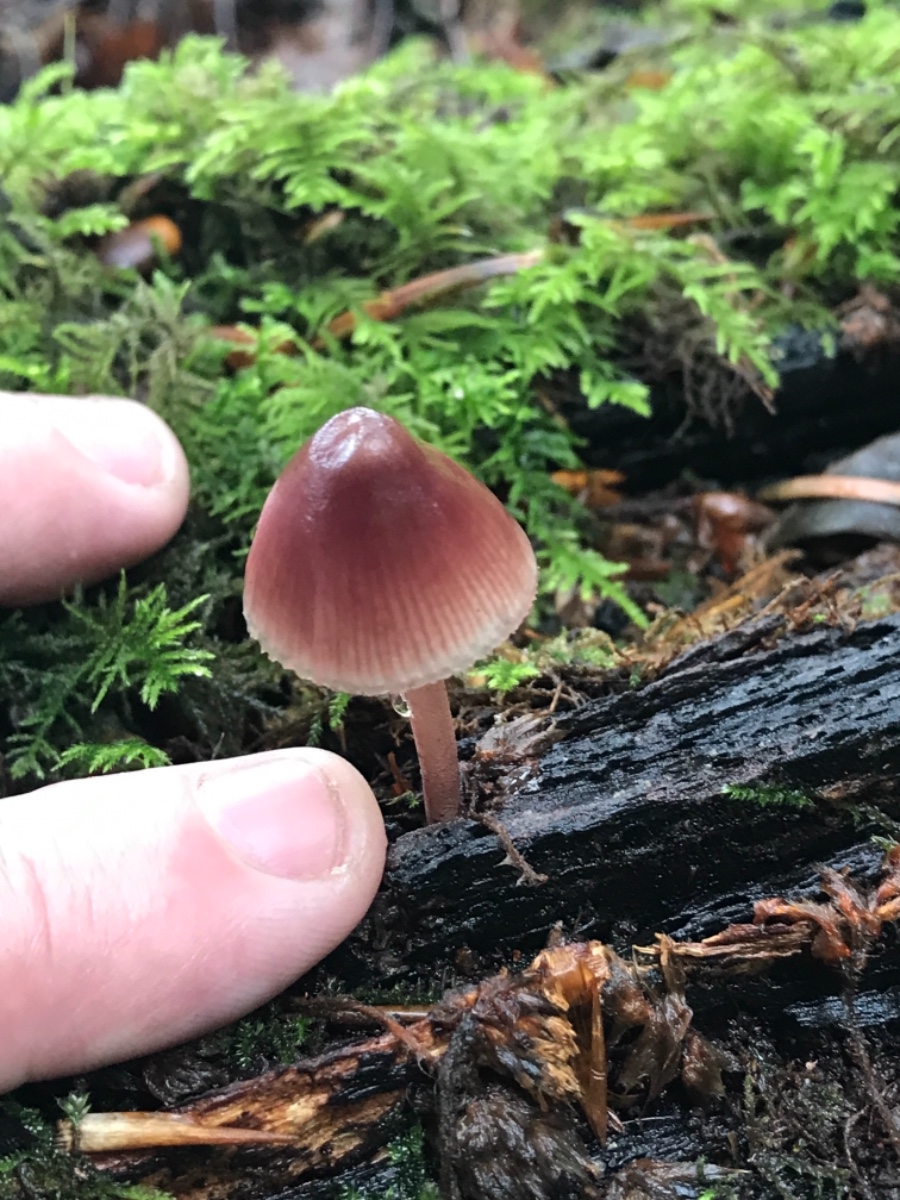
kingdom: Fungi
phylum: Basidiomycota
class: Agaricomycetes
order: Agaricales
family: Mycenaceae
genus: Mycena
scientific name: Mycena haematopus
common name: blødende huesvamp
